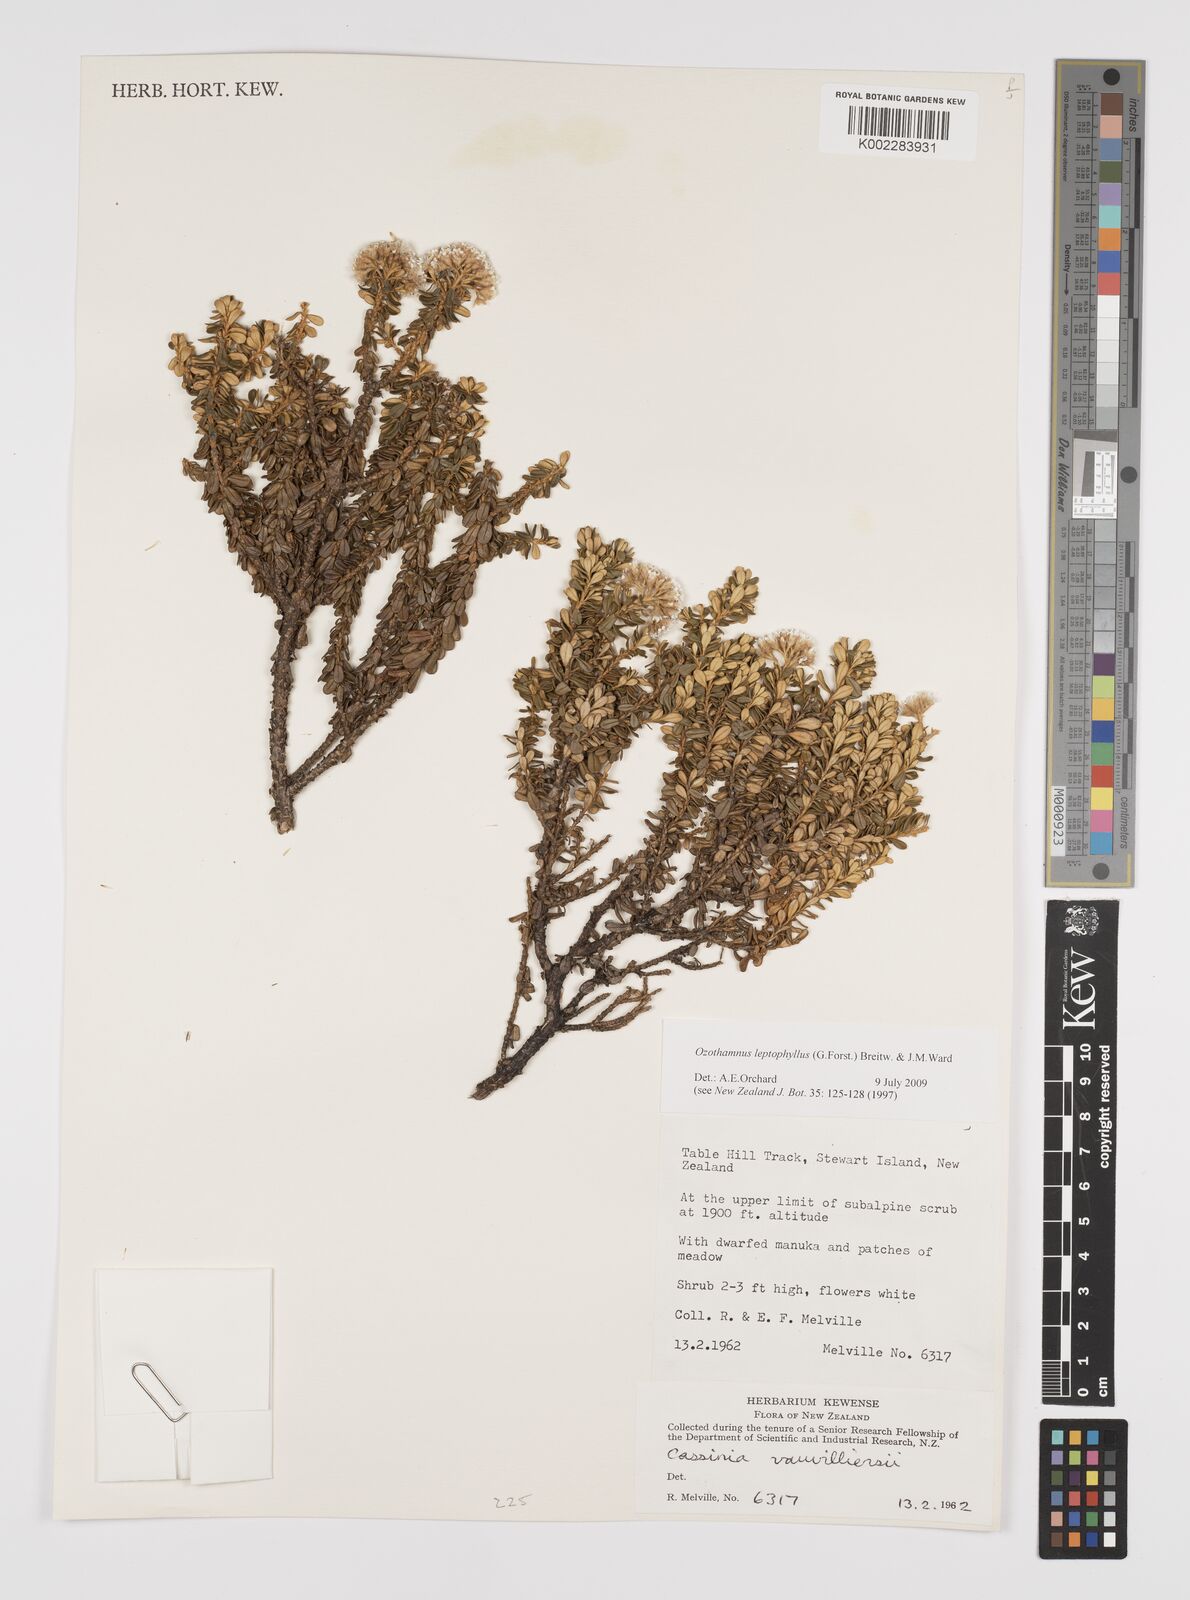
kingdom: Plantae
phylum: Tracheophyta
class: Magnoliopsida
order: Asterales
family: Asteraceae
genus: Ozothamnus
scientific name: Ozothamnus leptophyllus
